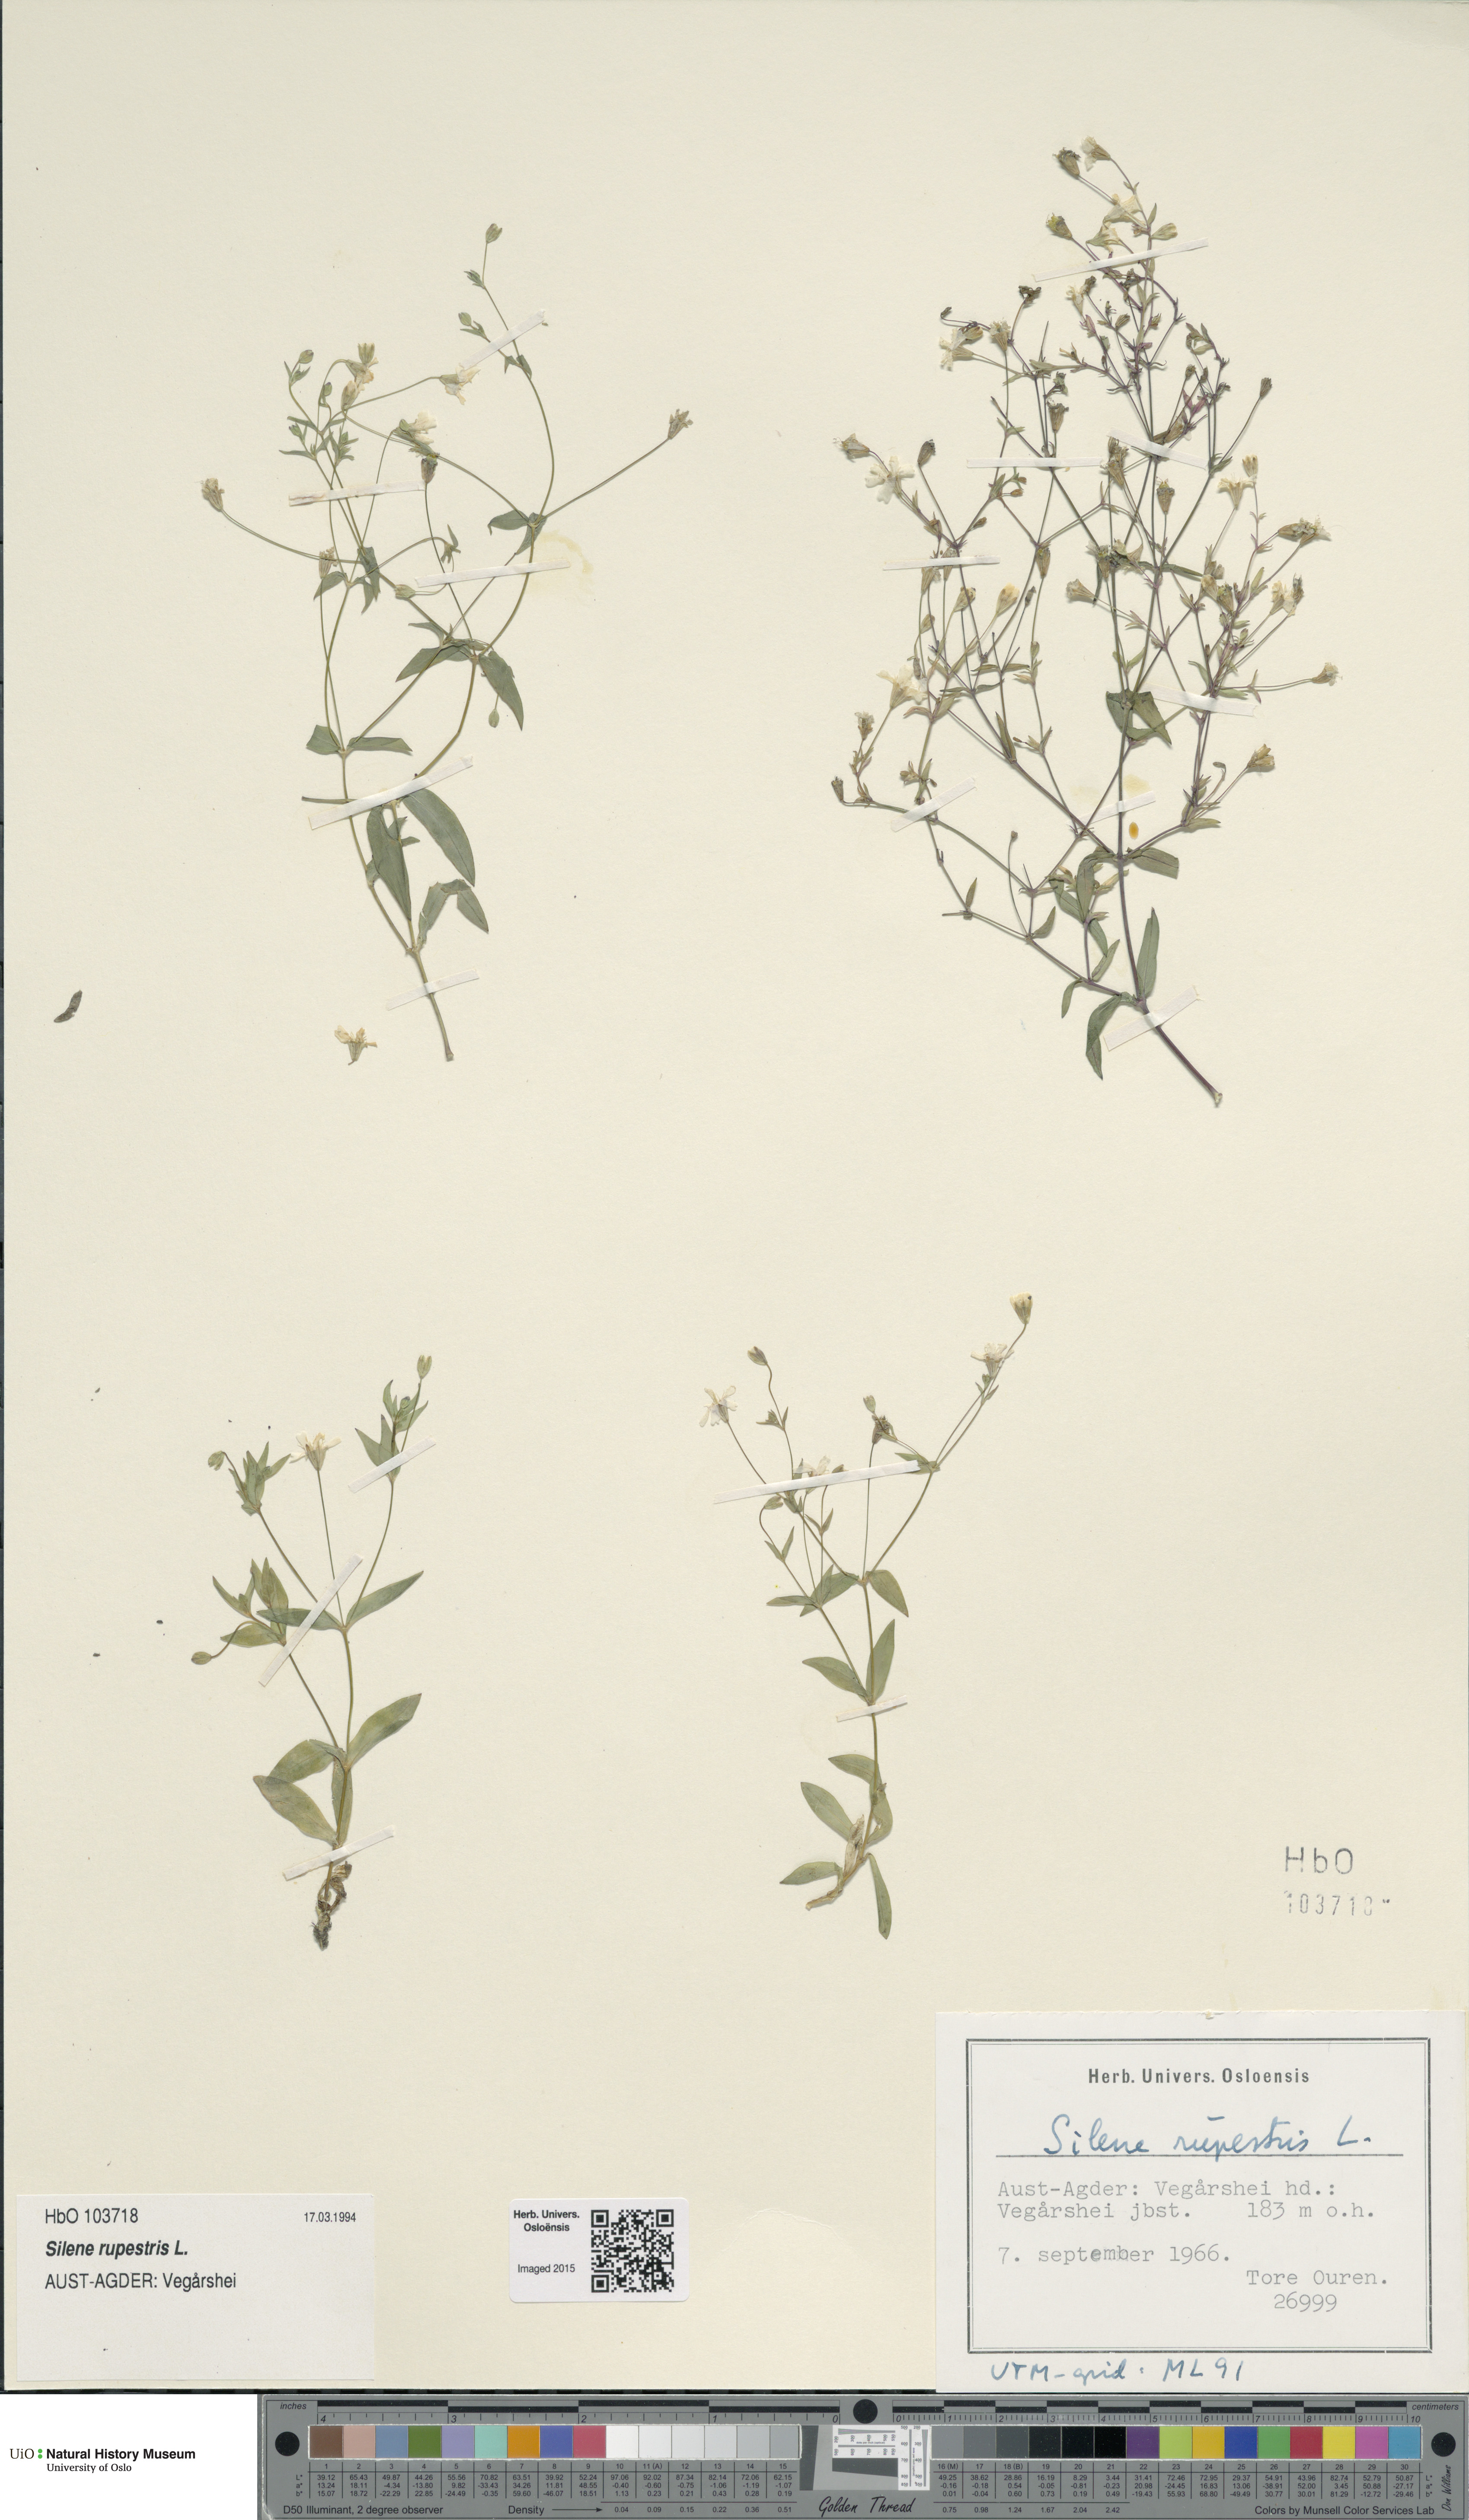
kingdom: Plantae
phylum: Tracheophyta
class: Magnoliopsida
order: Caryophyllales
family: Caryophyllaceae
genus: Atocion
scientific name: Atocion rupestre
